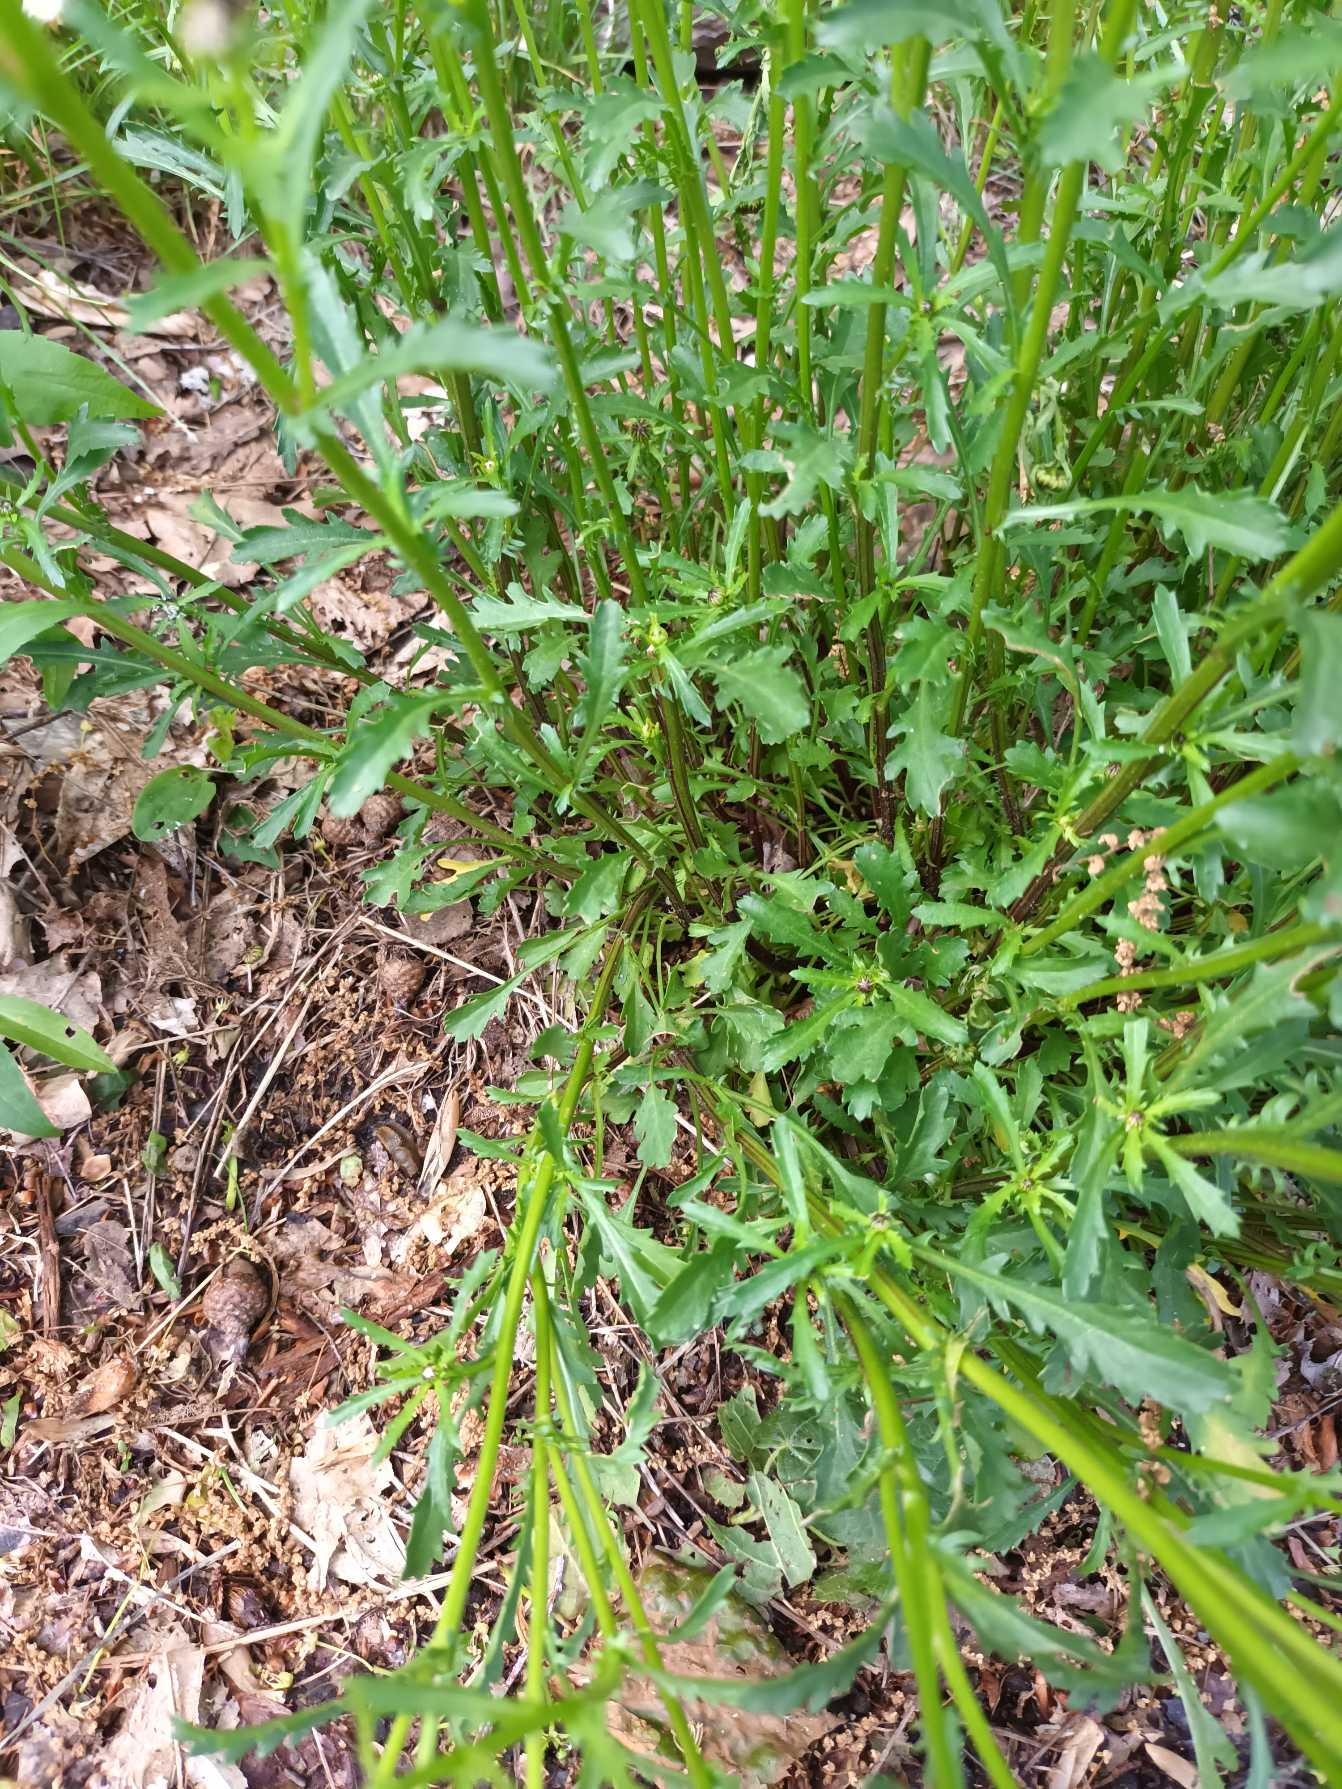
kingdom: Plantae
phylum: Tracheophyta
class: Magnoliopsida
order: Asterales
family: Asteraceae
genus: Leucanthemum
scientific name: Leucanthemum vulgare
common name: Hvid okseøje
